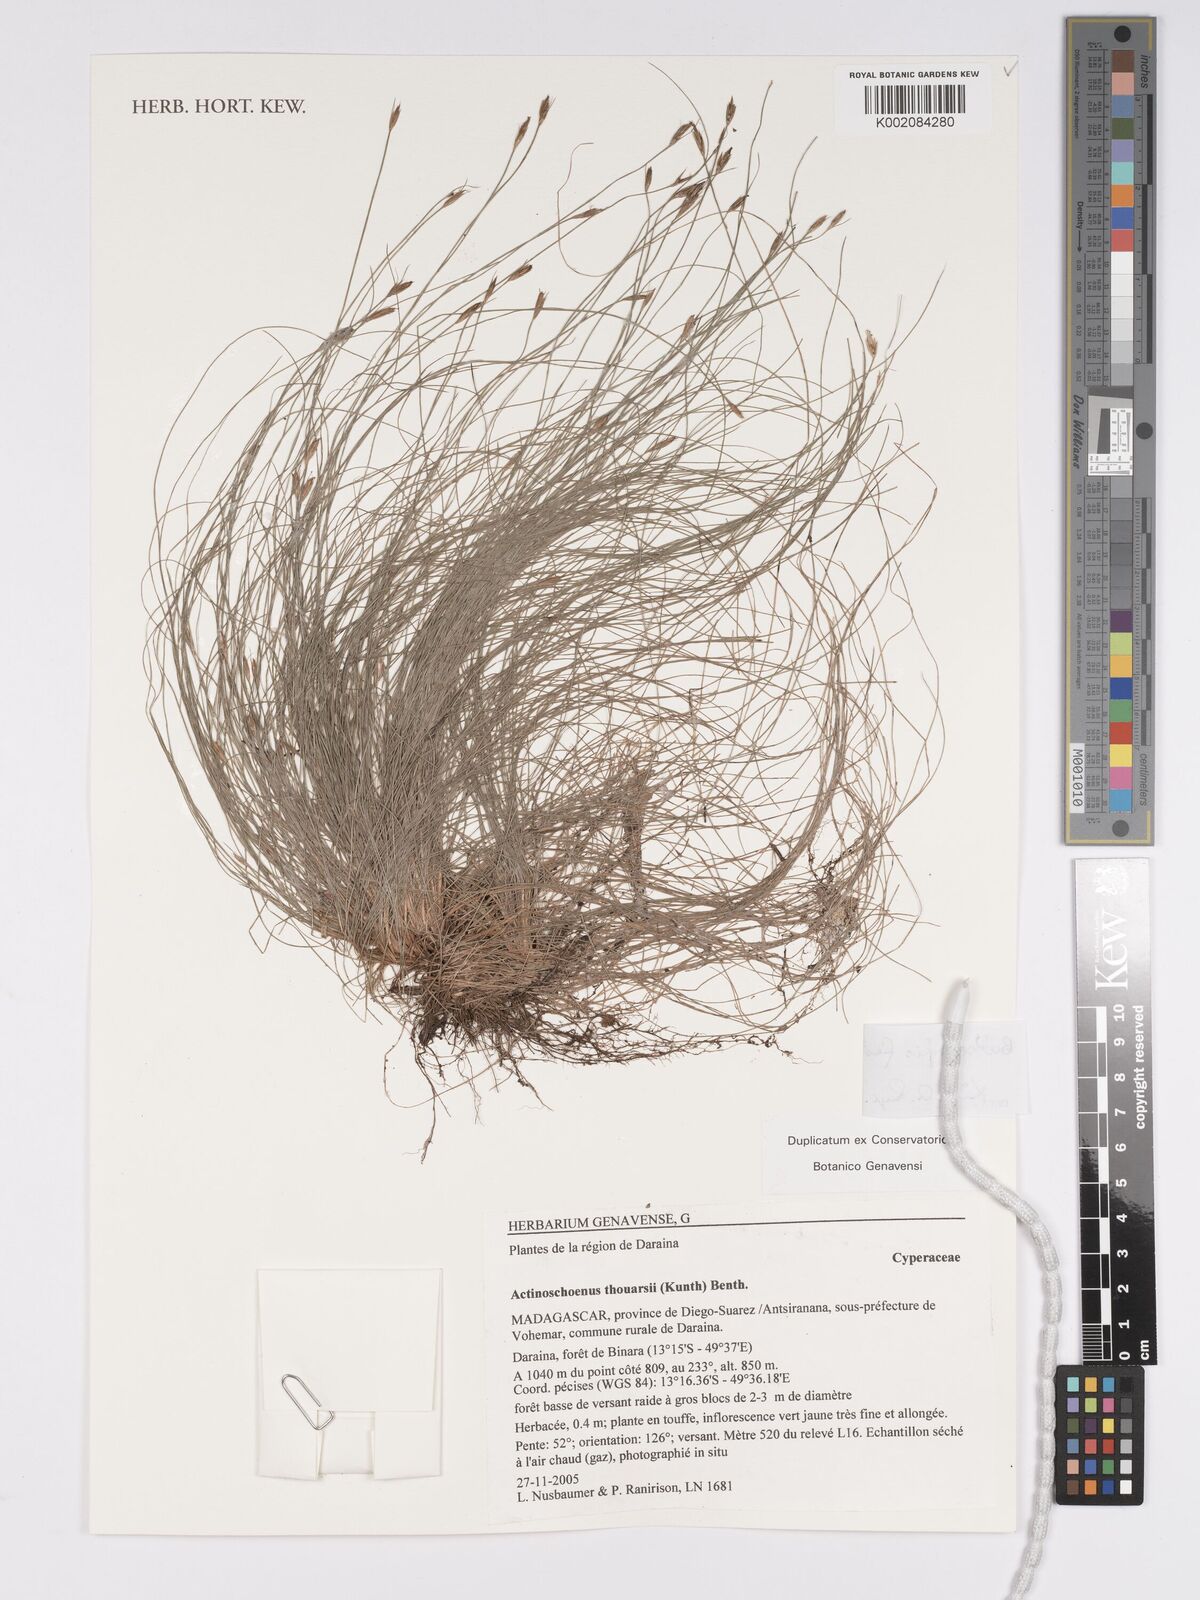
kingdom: Plantae
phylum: Tracheophyta
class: Liliopsida
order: Poales
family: Cyperaceae
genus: Bulbostylis
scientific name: Bulbostylis festucoides
